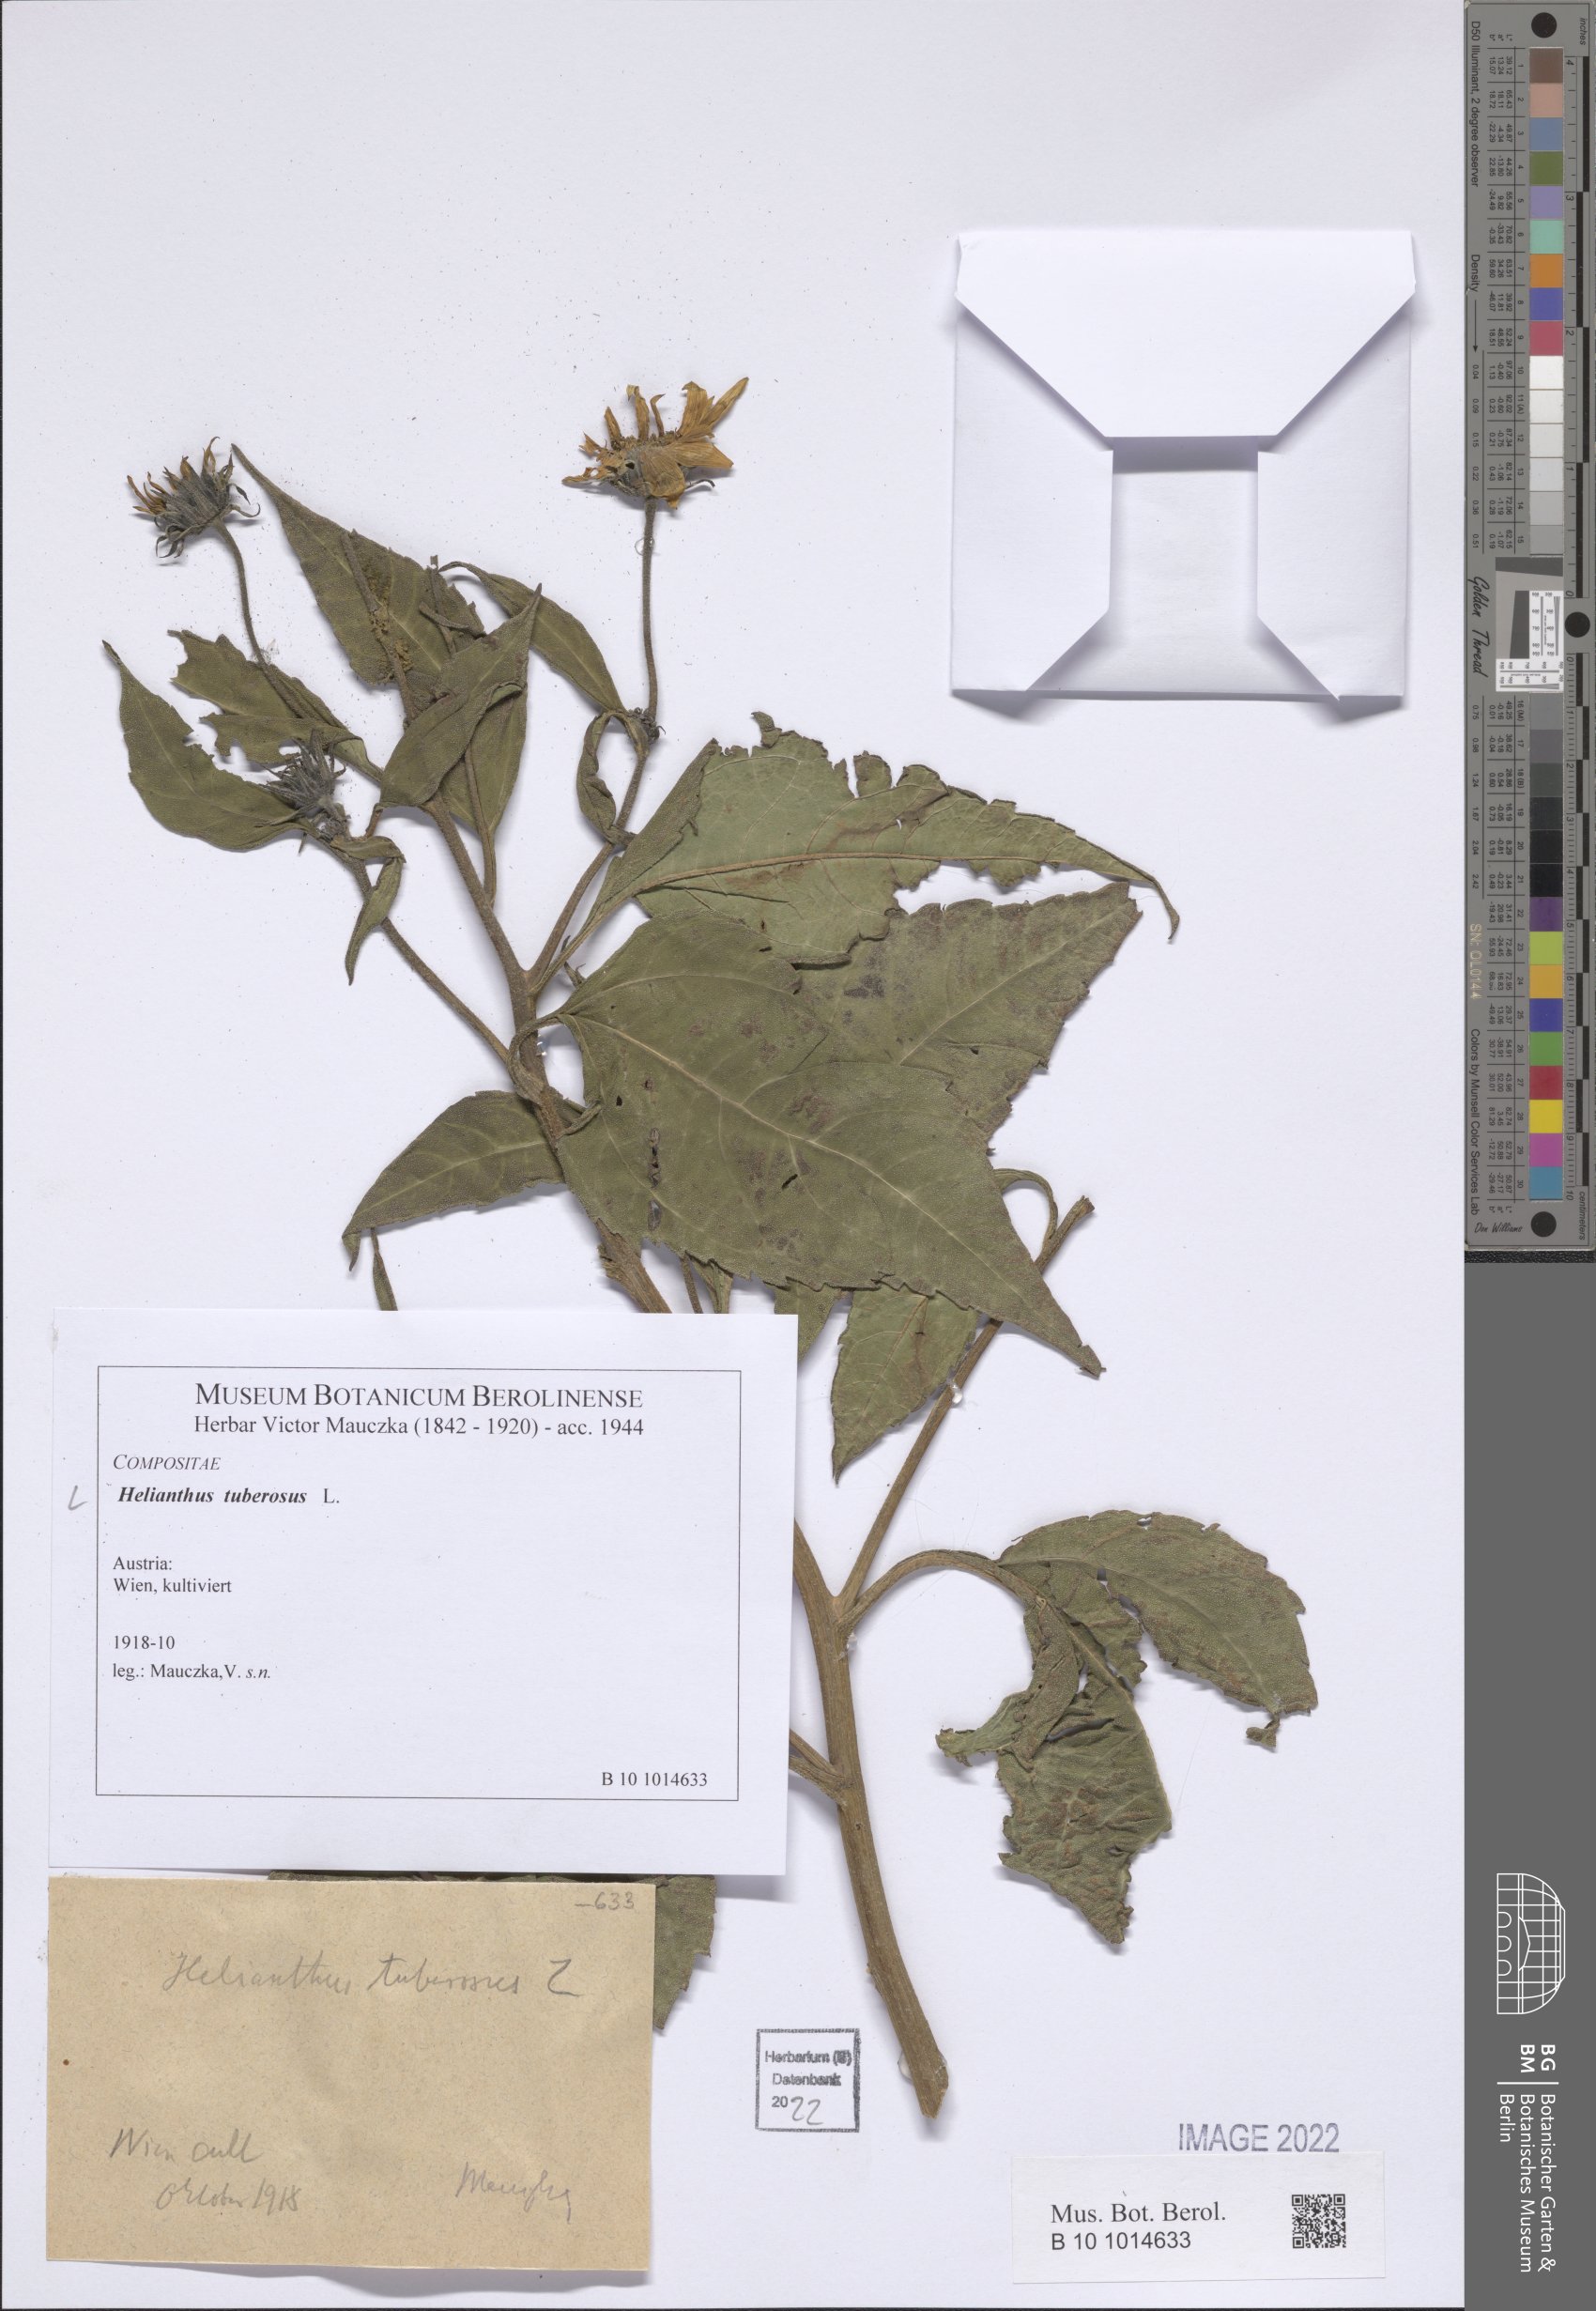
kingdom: Plantae
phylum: Tracheophyta
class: Magnoliopsida
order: Asterales
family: Asteraceae
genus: Helianthus
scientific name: Helianthus tuberosus
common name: Jerusalem artichoke
